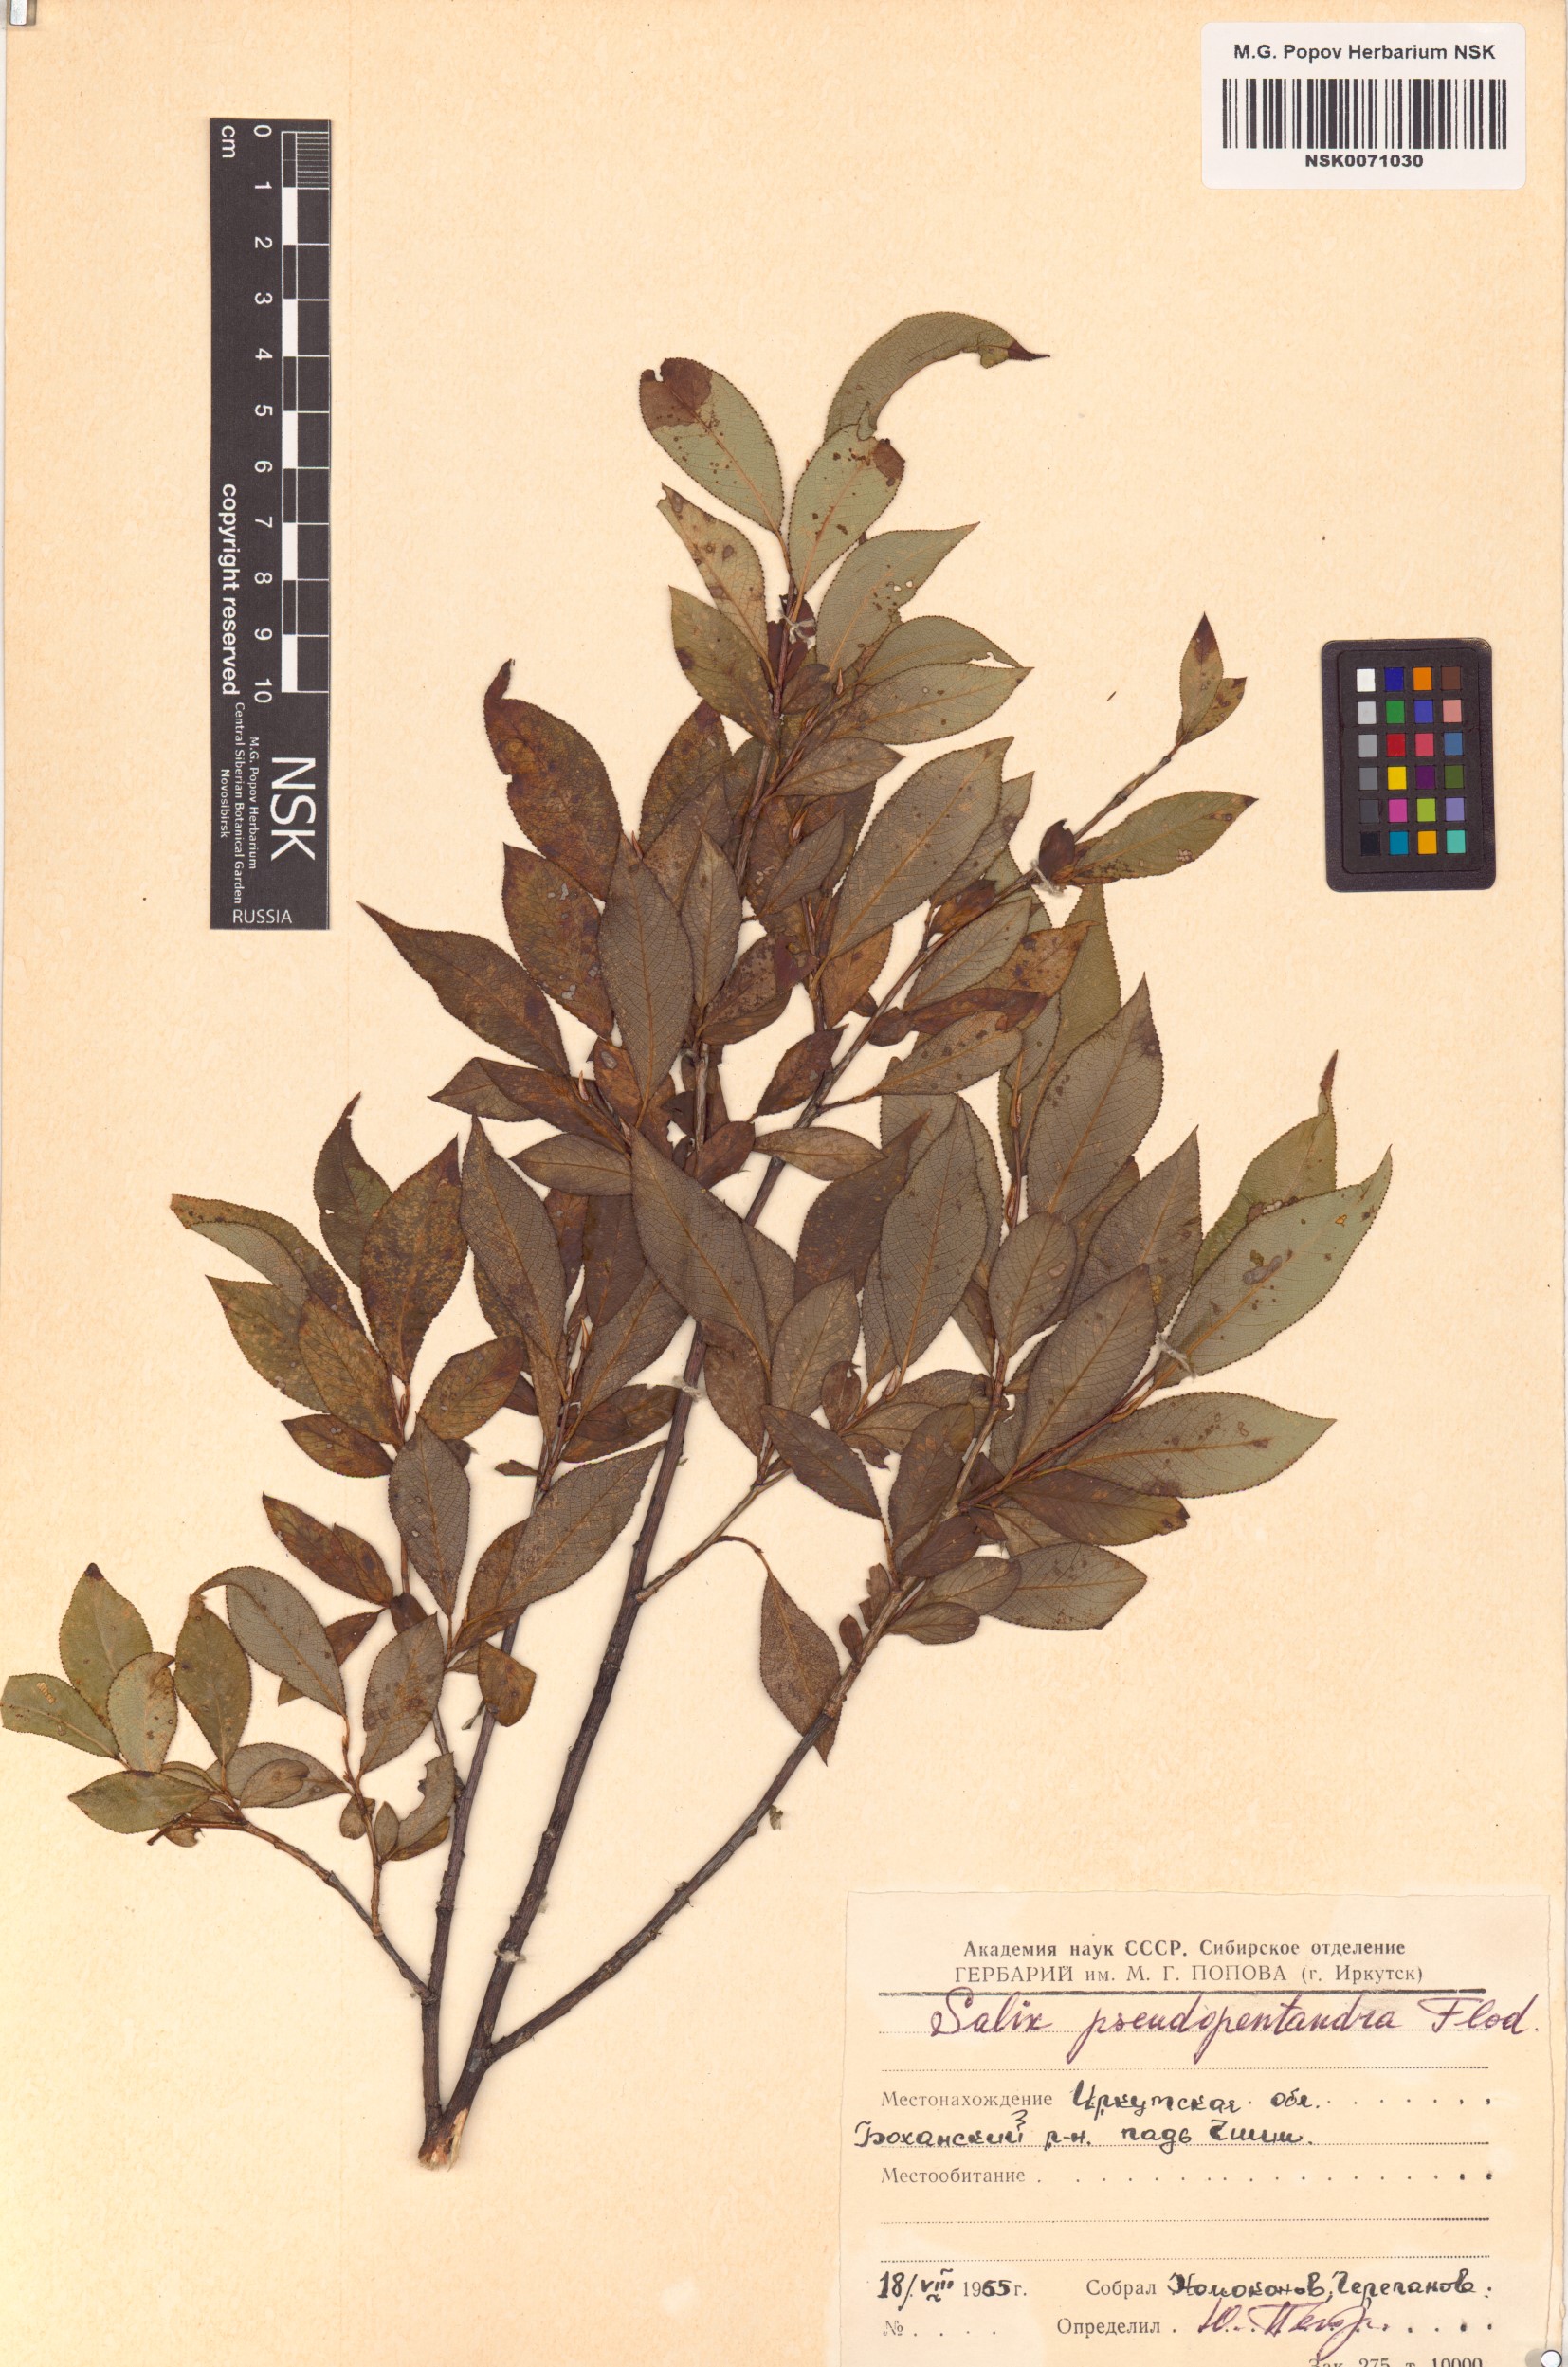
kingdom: Plantae
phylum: Tracheophyta
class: Magnoliopsida
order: Malpighiales
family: Salicaceae
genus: Salix
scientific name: Salix pseudopentandra
